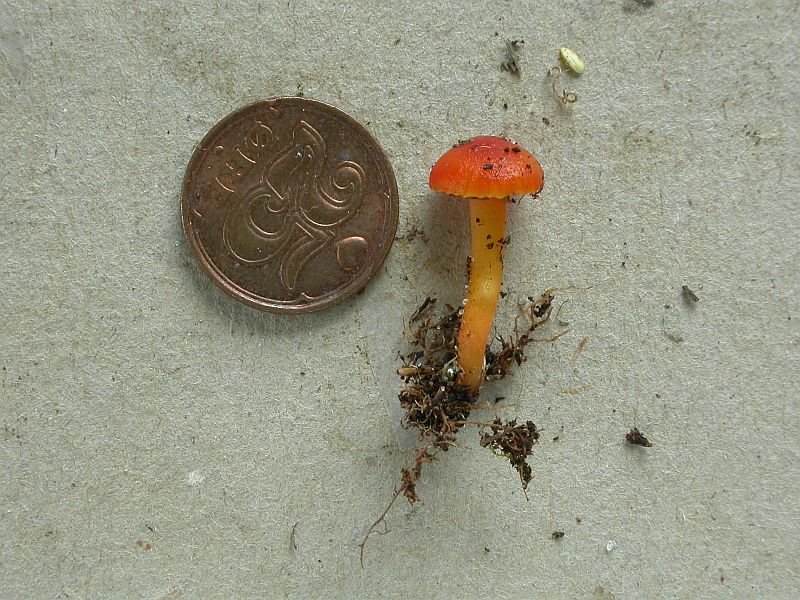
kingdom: Fungi
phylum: Basidiomycota
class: Agaricomycetes
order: Agaricales
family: Hygrophoraceae
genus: Hygrocybe
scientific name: Hygrocybe insipida
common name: liden vokshat
